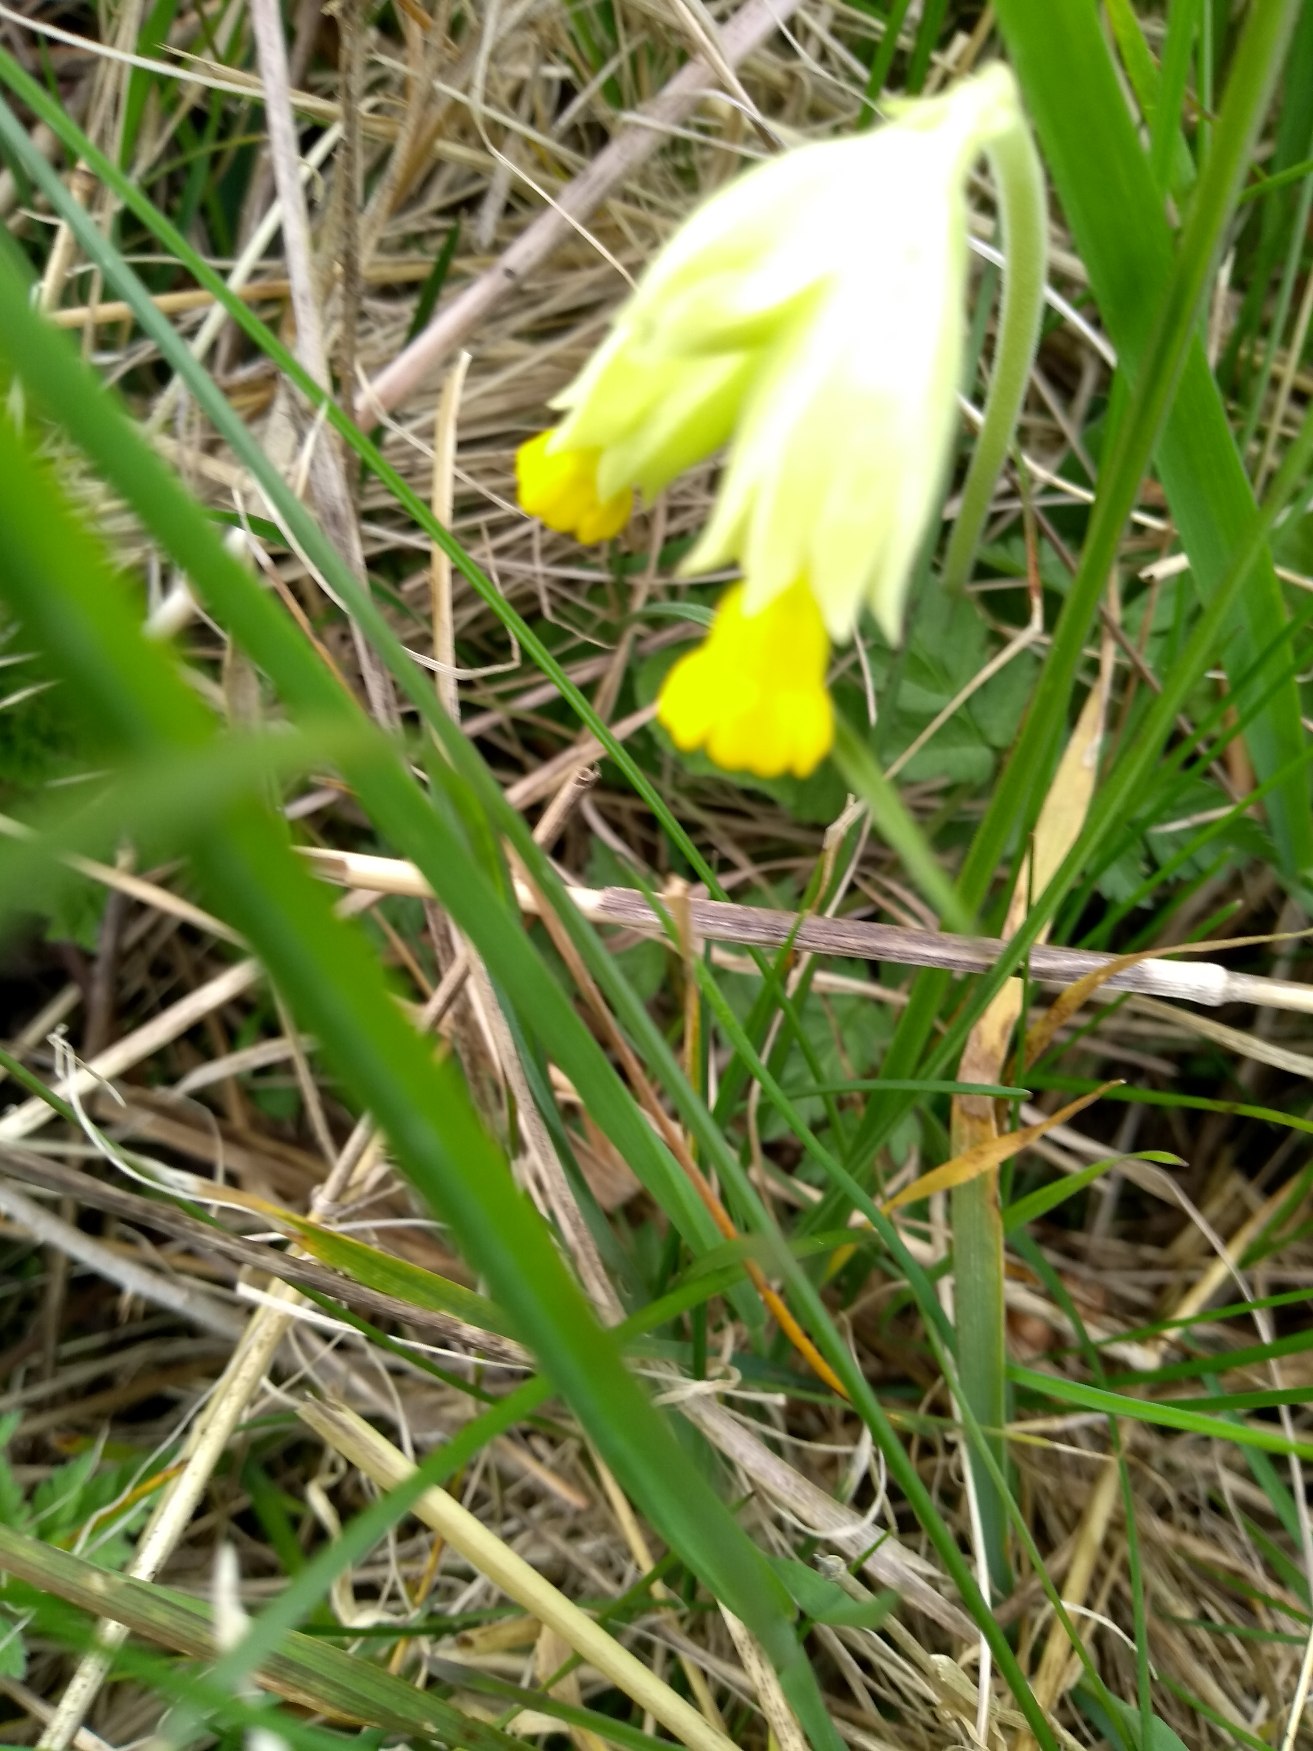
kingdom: Plantae
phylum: Tracheophyta
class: Magnoliopsida
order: Ericales
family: Primulaceae
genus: Primula
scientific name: Primula veris
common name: Hulkravet kodriver
